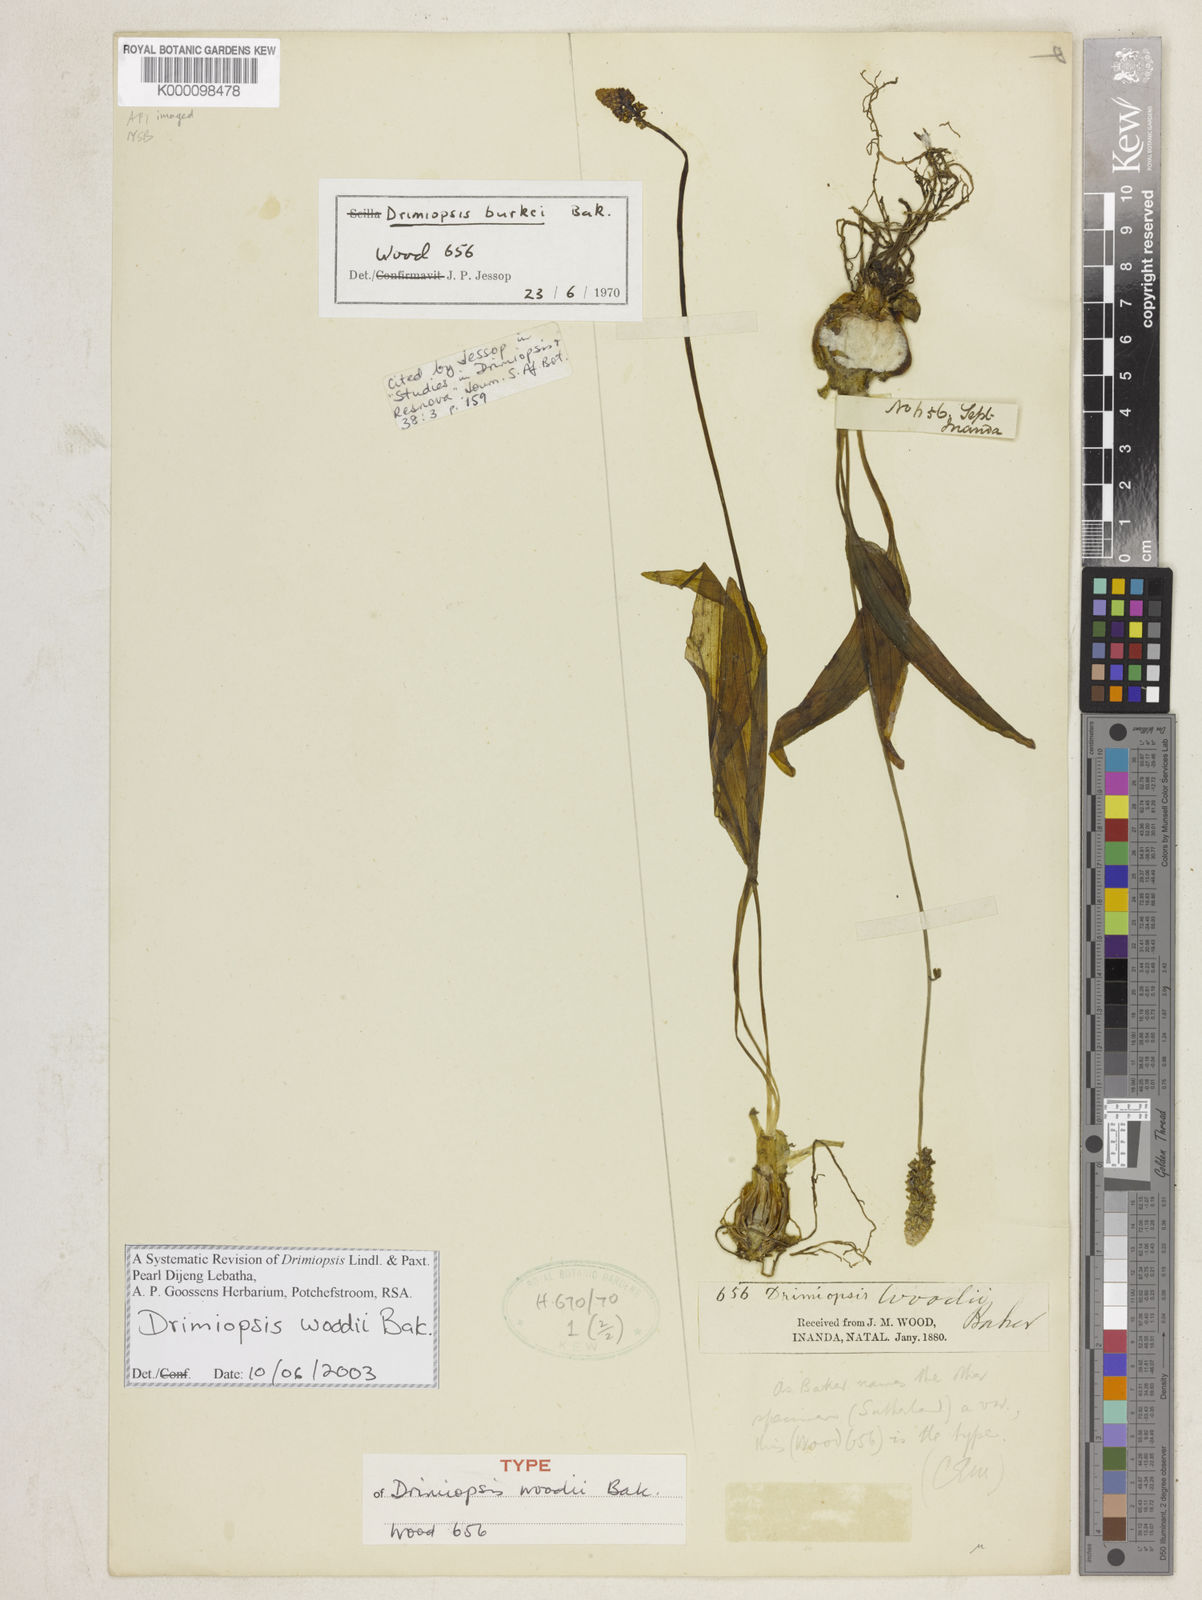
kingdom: Plantae
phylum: Tracheophyta
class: Liliopsida
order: Asparagales
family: Asparagaceae
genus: Drimiopsis
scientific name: Drimiopsis burkei
